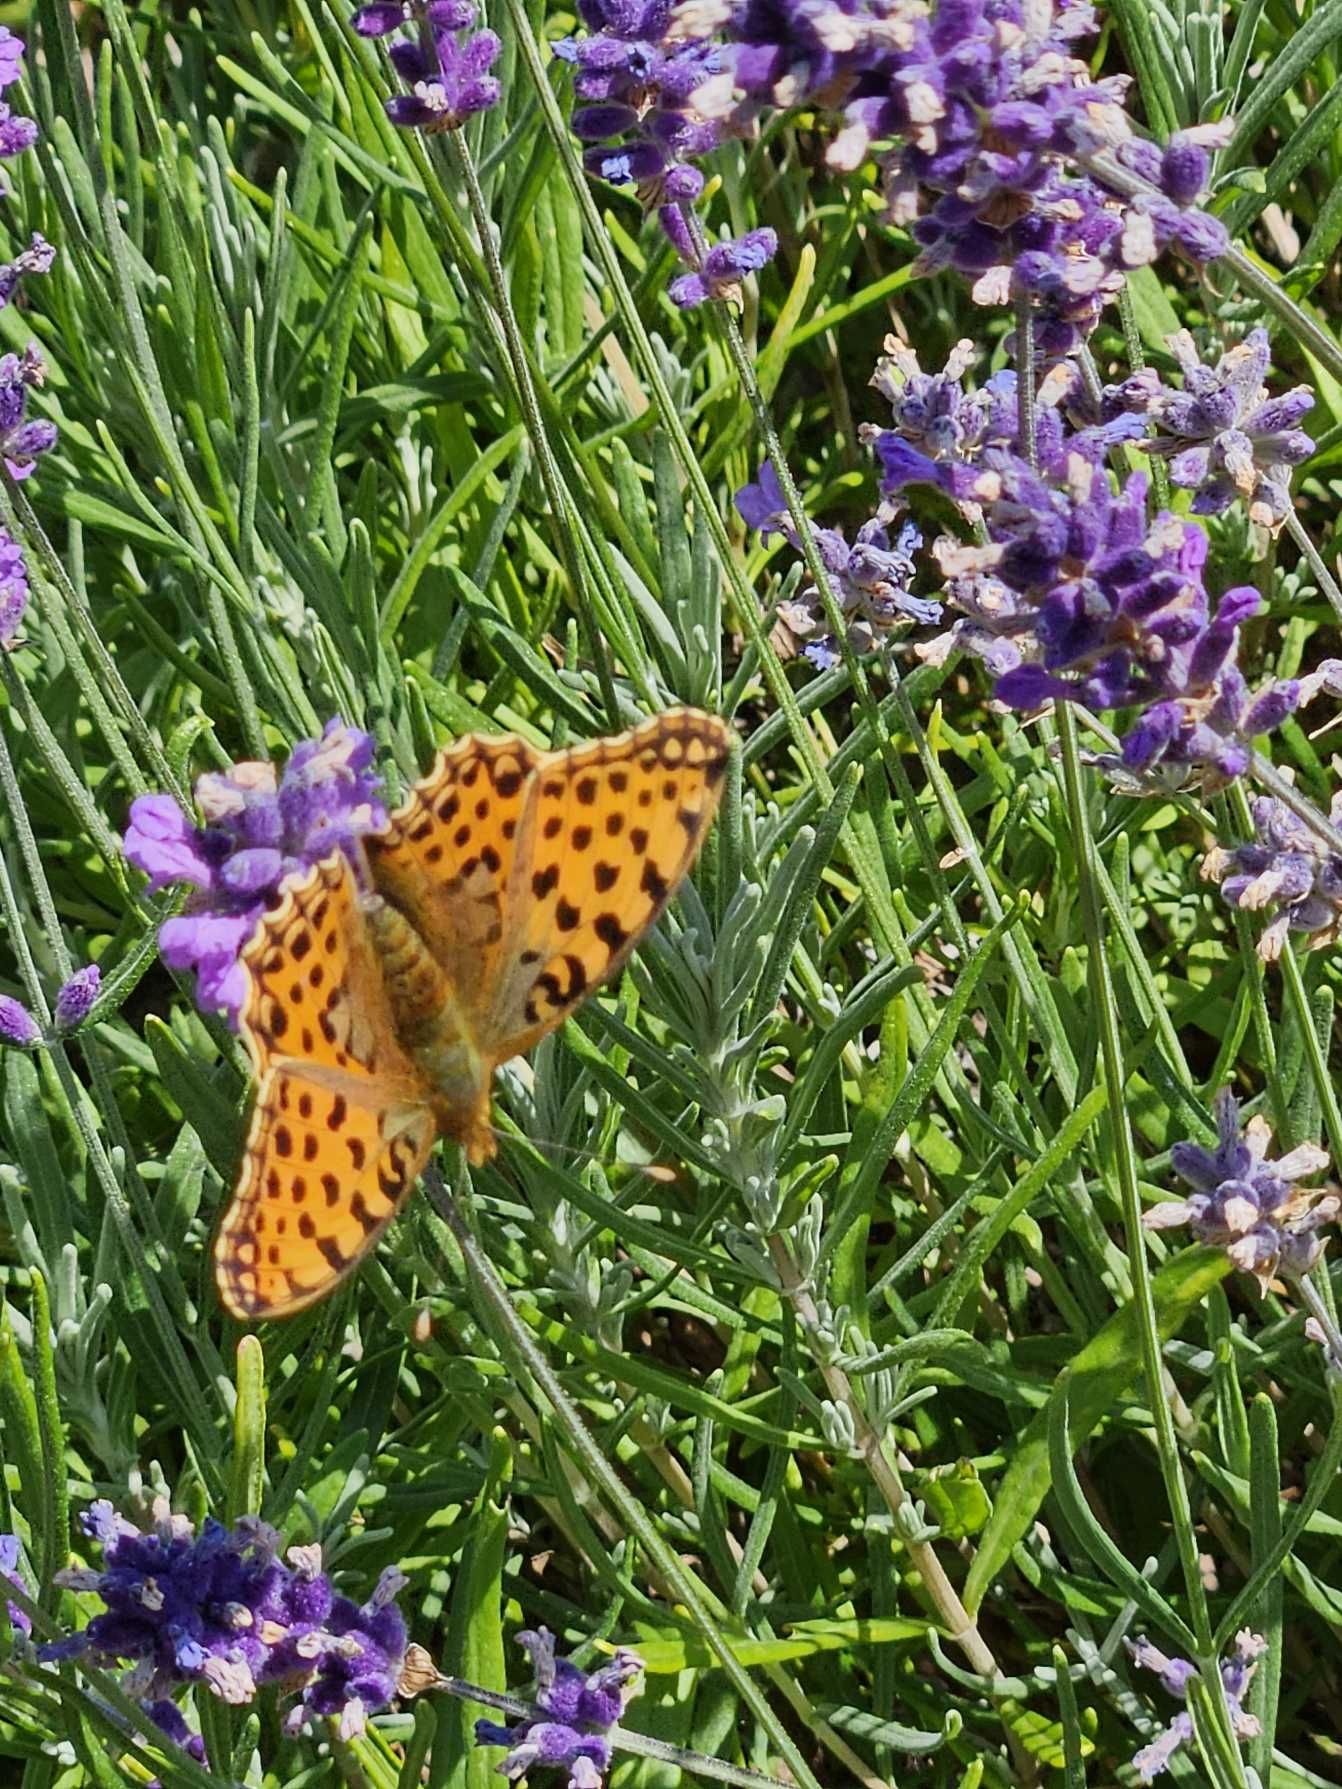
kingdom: Animalia
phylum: Arthropoda
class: Insecta
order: Lepidoptera
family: Nymphalidae
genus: Issoria
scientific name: Issoria lathonia
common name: Storplettet perlemorsommerfugl
